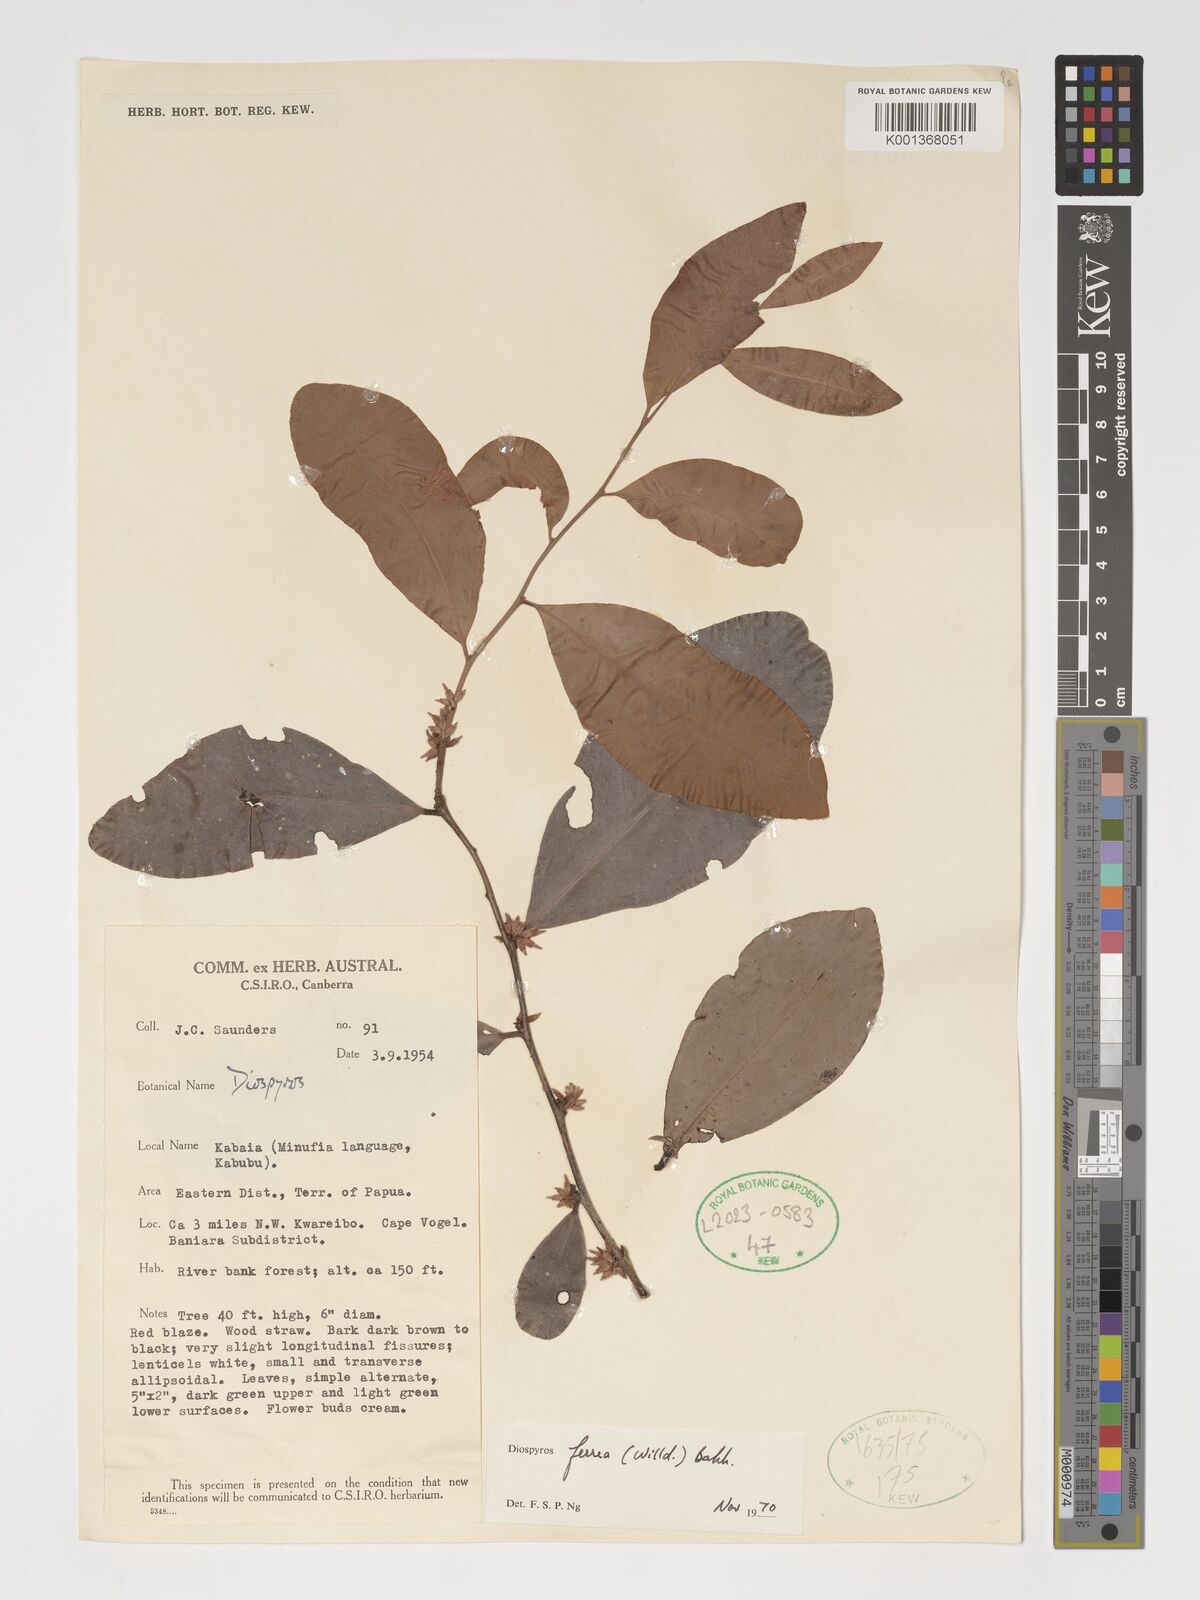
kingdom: Plantae
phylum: Tracheophyta
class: Magnoliopsida
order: Ericales
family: Ebenaceae
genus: Diospyros
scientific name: Diospyros ferrea
